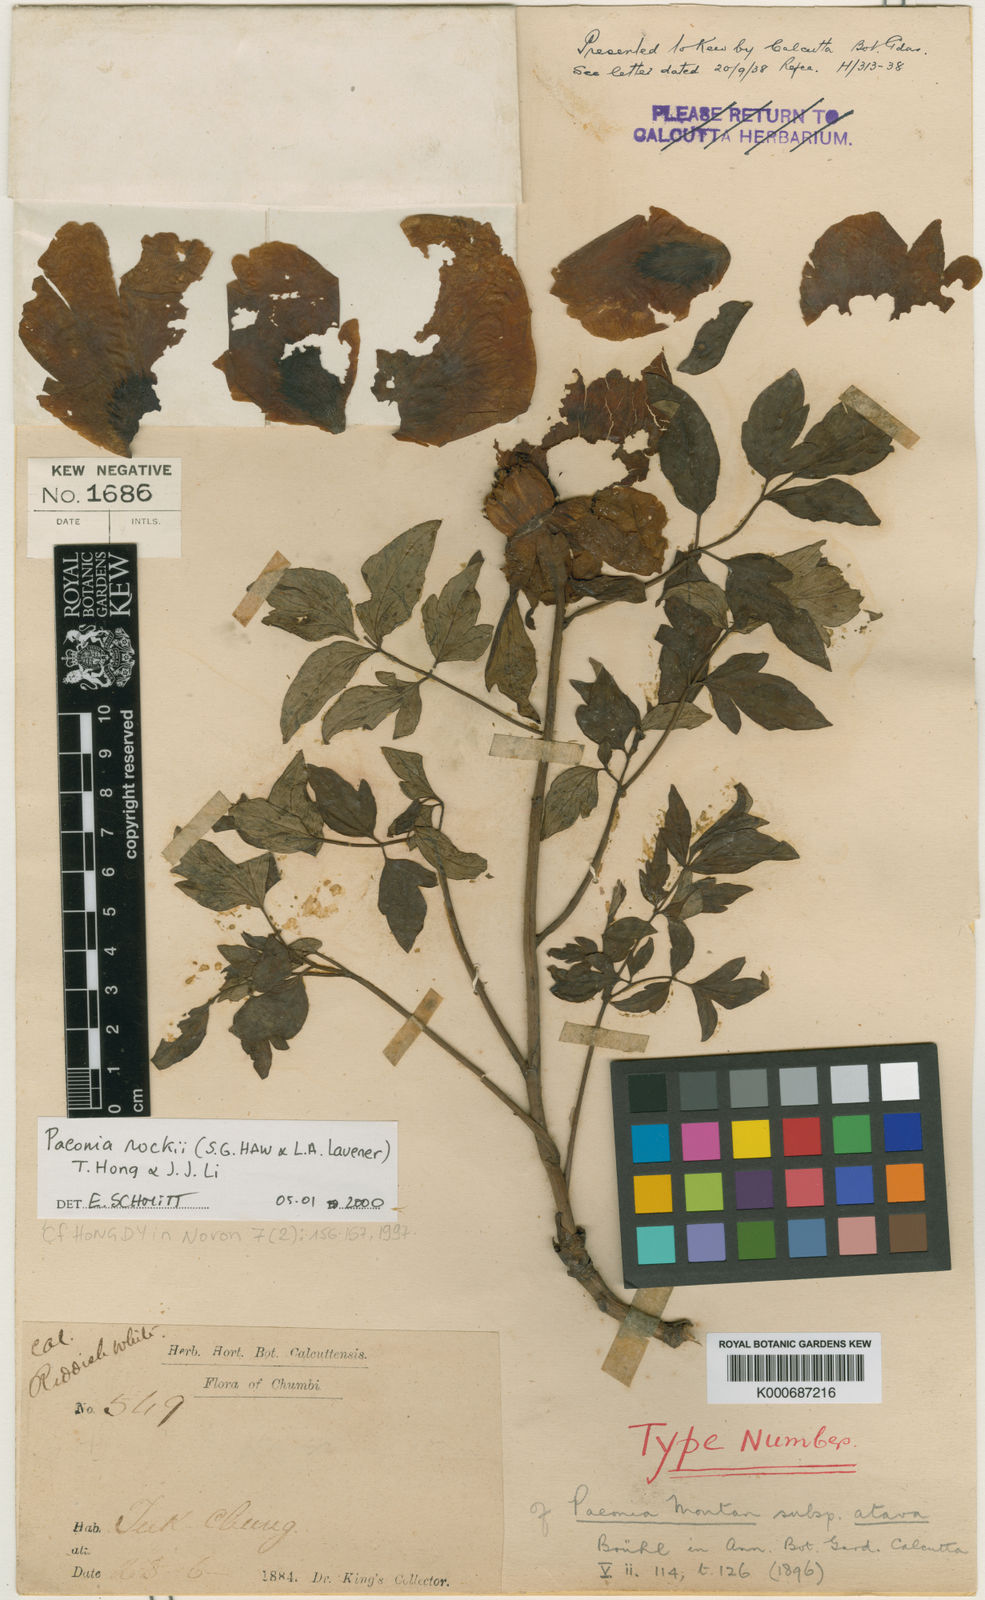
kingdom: Plantae
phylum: Tracheophyta
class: Magnoliopsida
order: Saxifragales
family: Paeoniaceae
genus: Paeonia
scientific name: Paeonia suffruticosa
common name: Moutan peony
